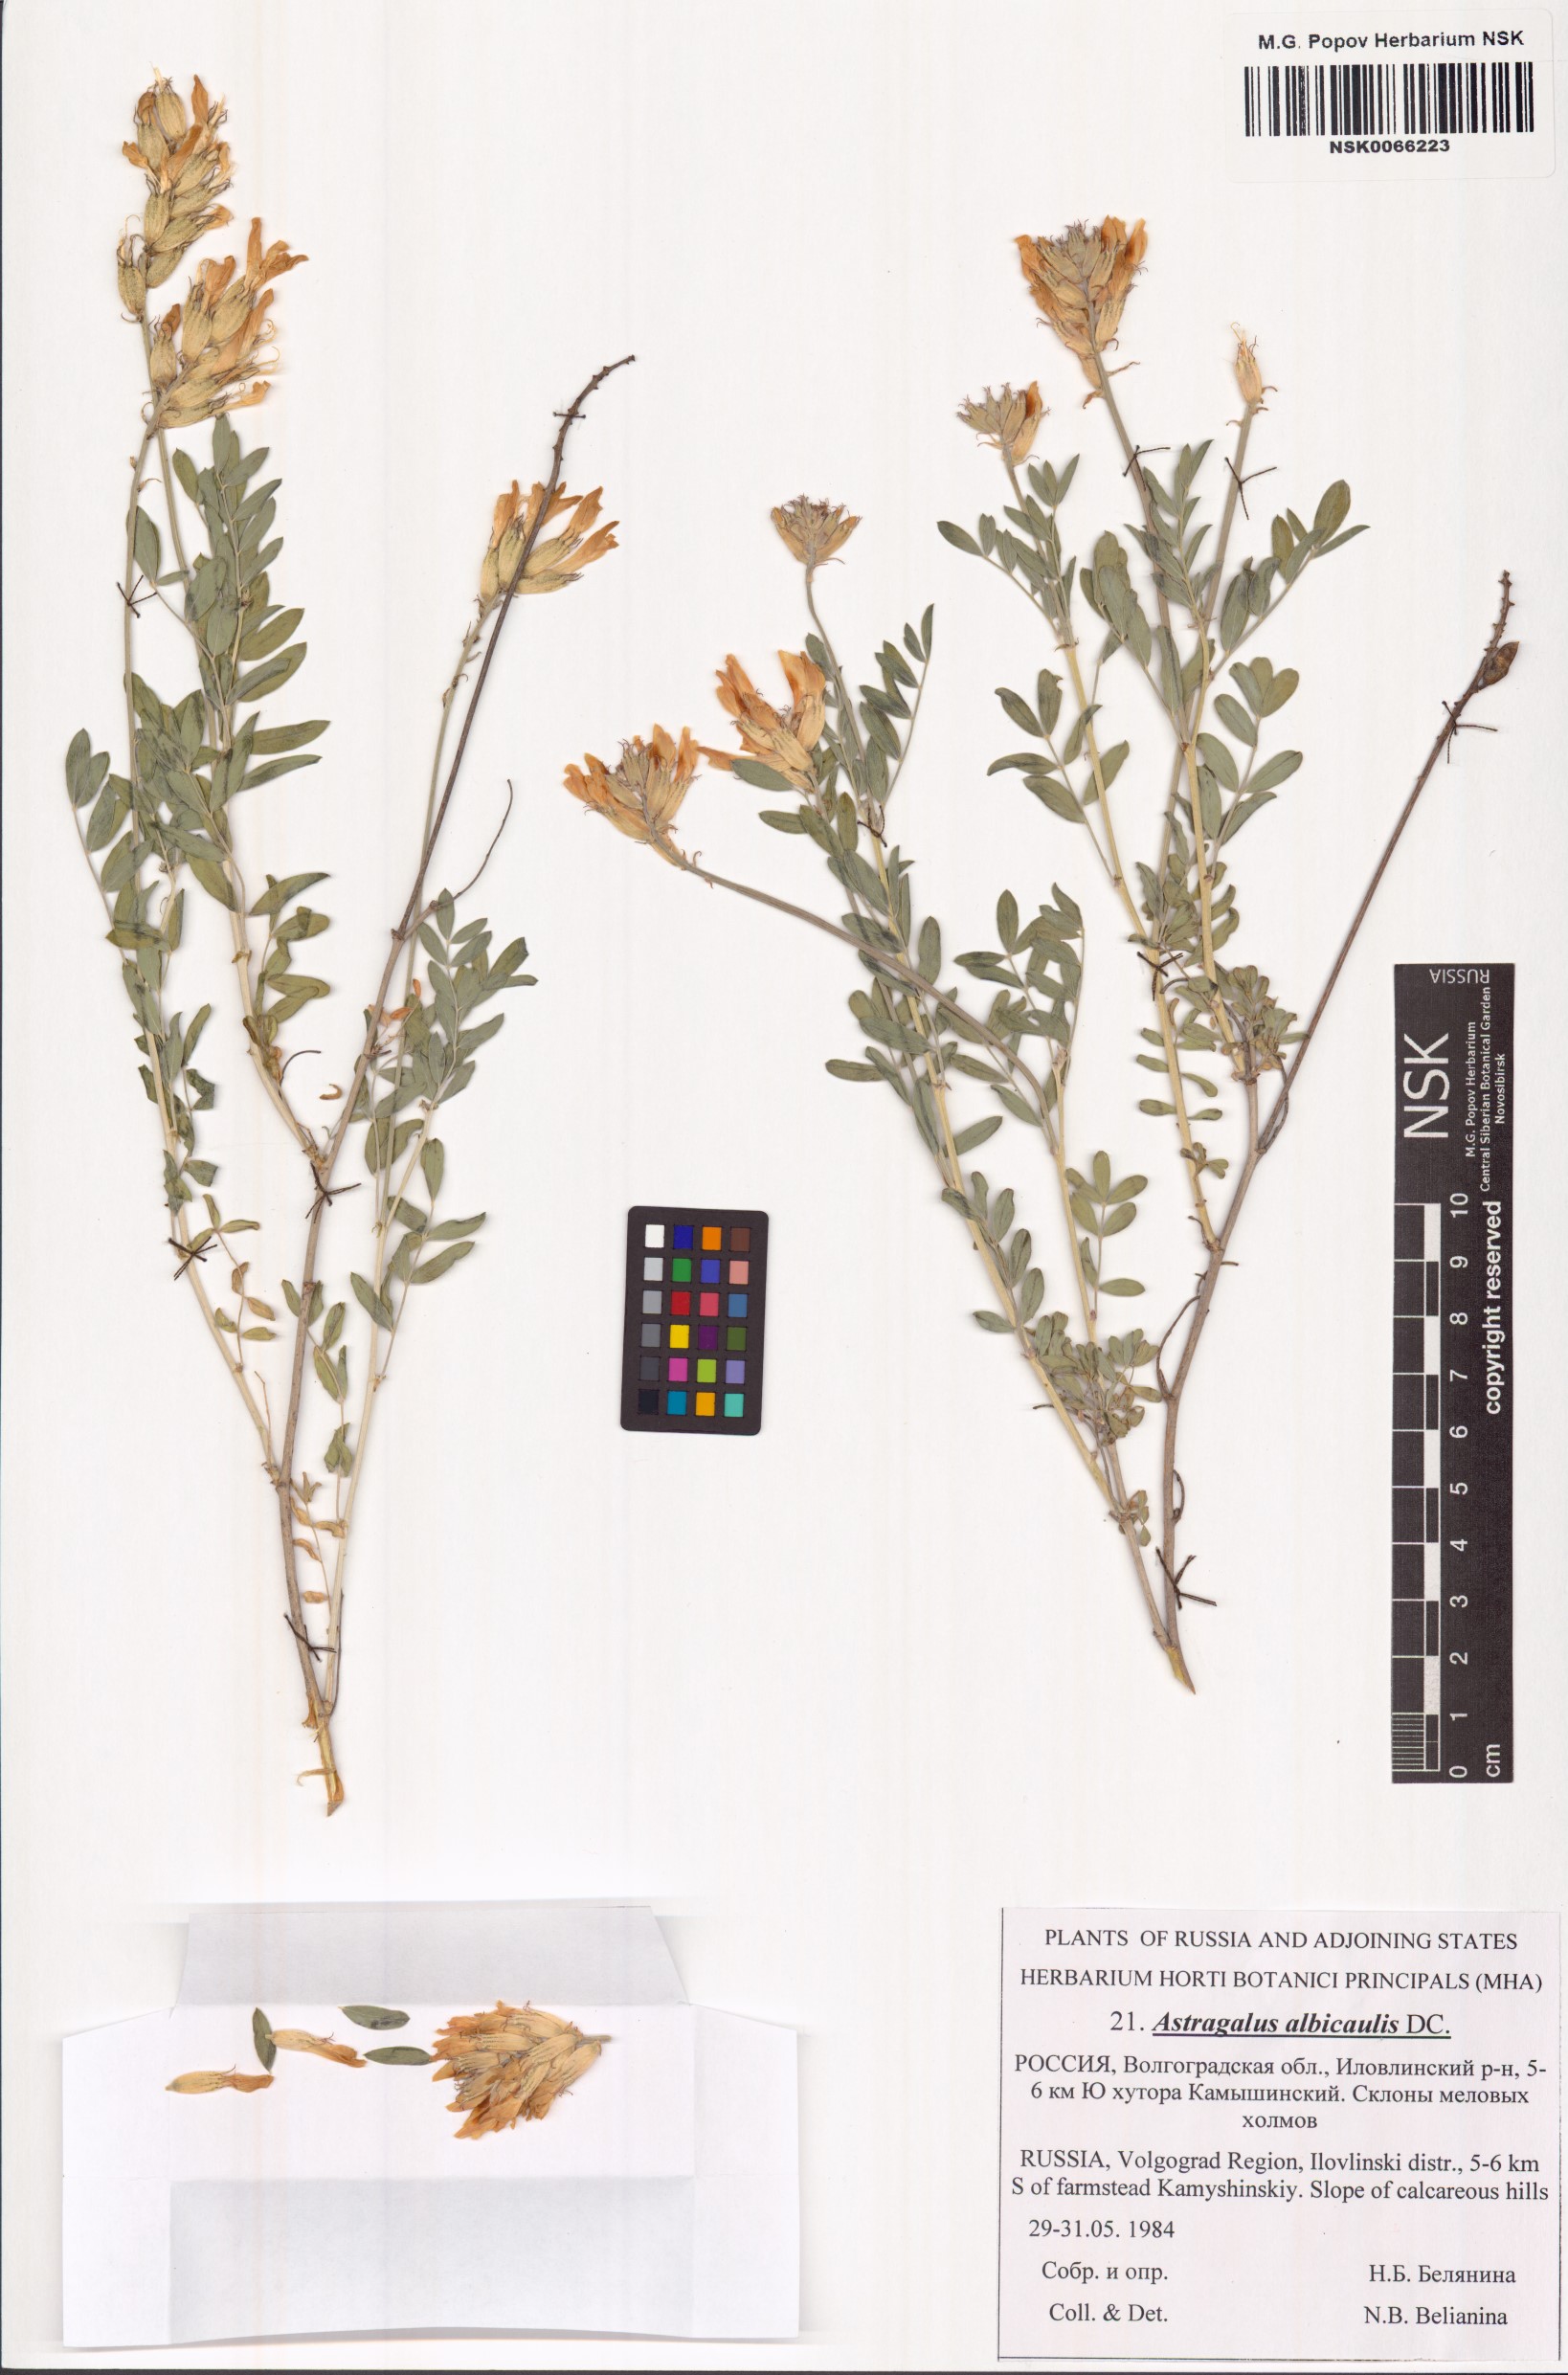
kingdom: Plantae
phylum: Tracheophyta
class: Magnoliopsida
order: Fabales
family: Fabaceae
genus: Astragalus
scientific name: Astragalus albicaulis
